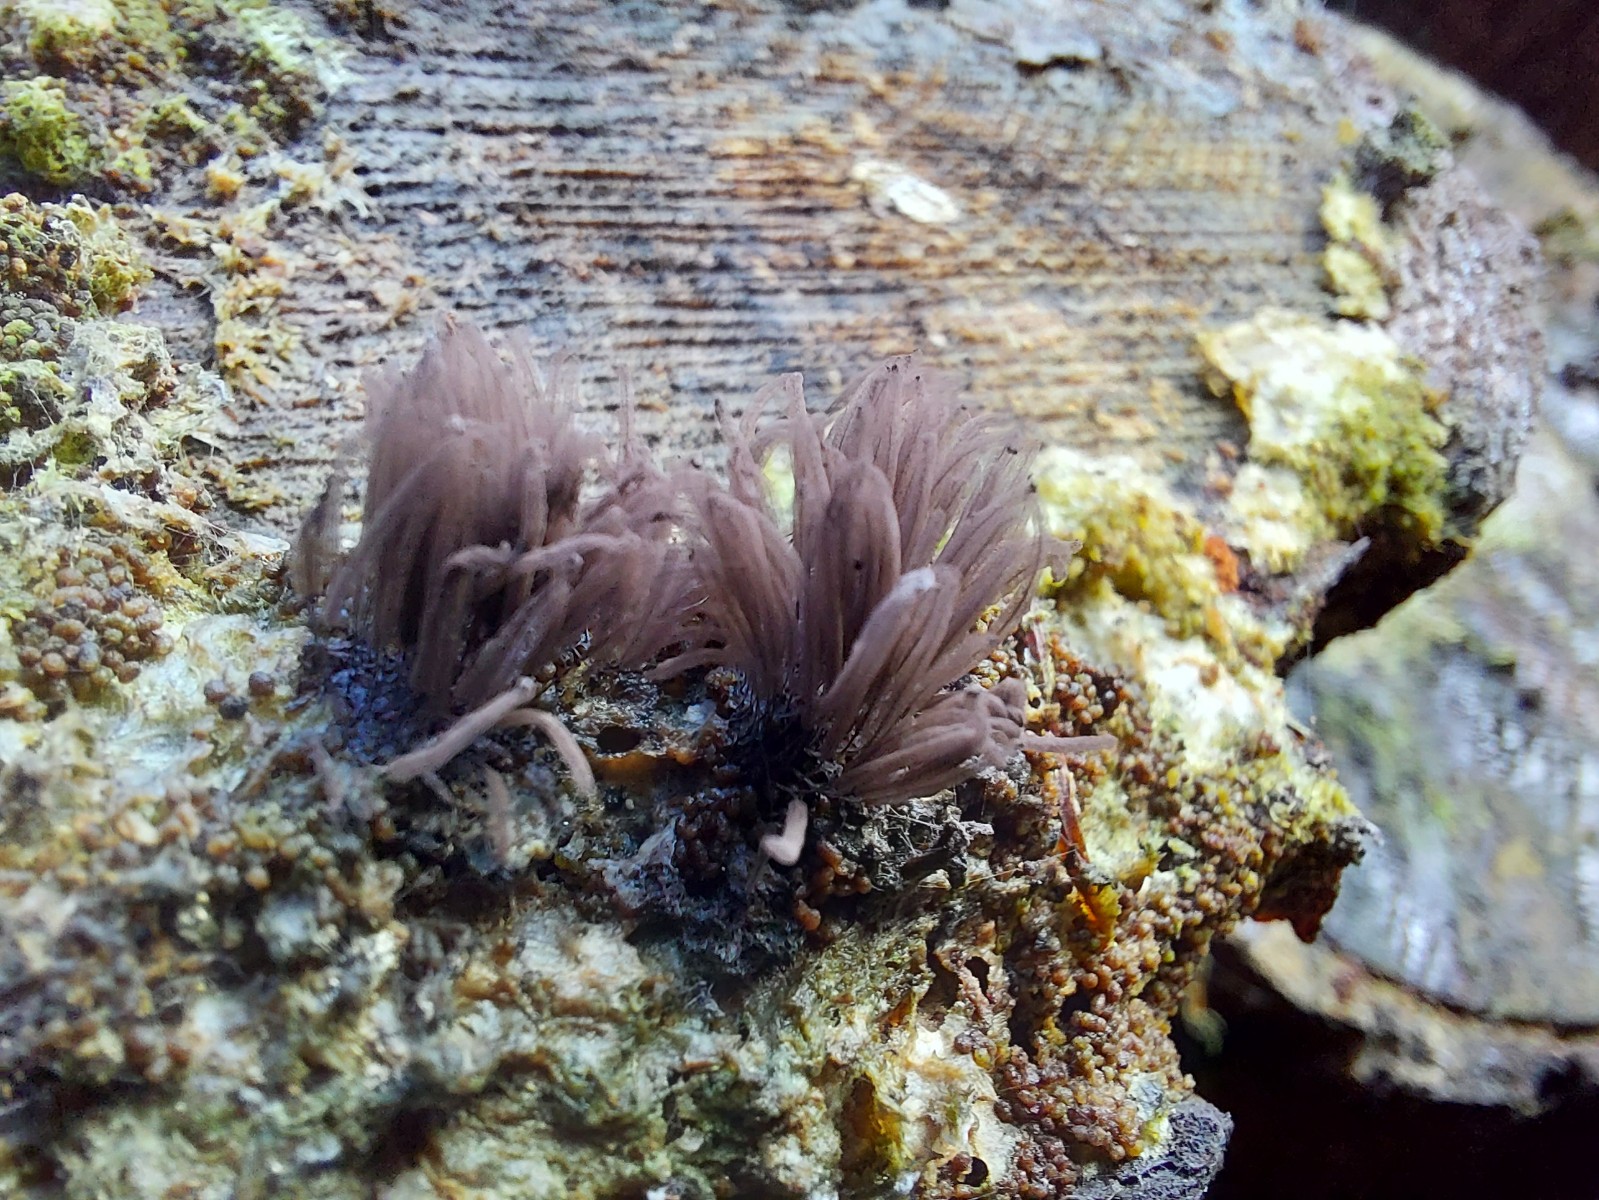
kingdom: Protozoa
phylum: Mycetozoa
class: Myxomycetes
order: Stemonitidales
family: Stemonitidaceae
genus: Stemonitis
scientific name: Stemonitis
